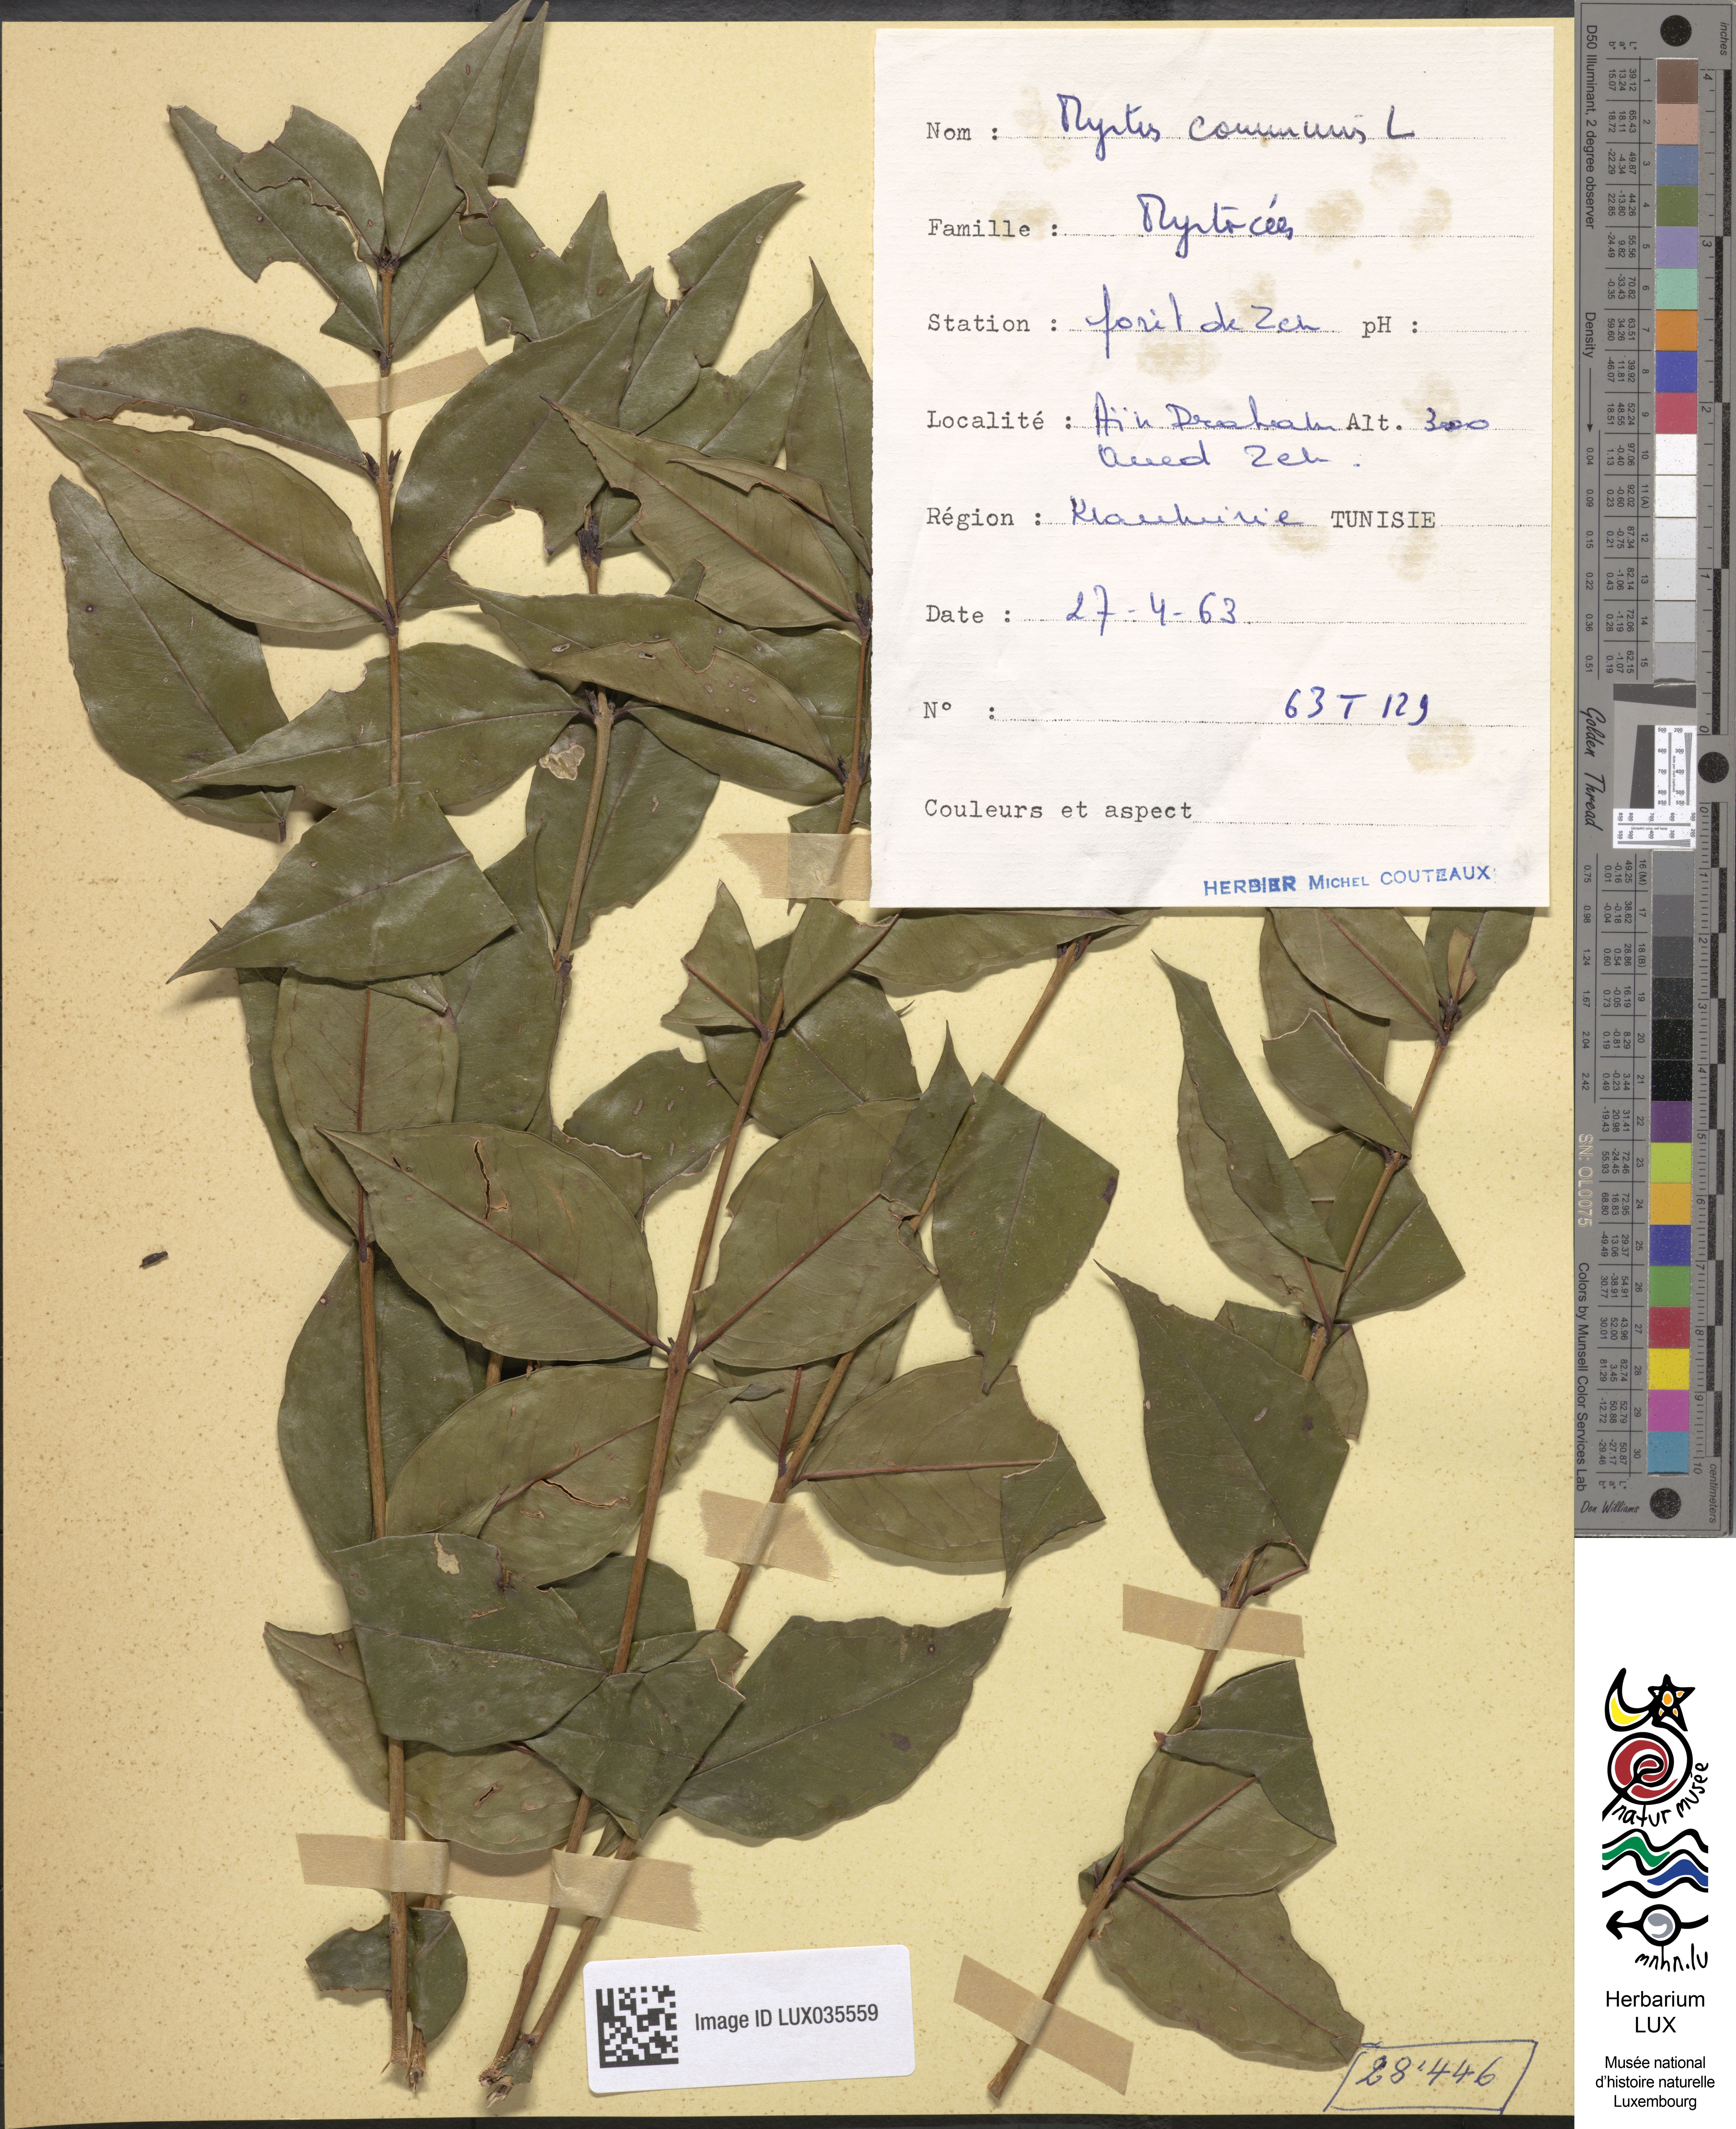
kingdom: Plantae
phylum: Tracheophyta
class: Magnoliopsida
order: Myrtales
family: Myrtaceae
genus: Myrtus
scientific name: Myrtus communis
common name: Myrtle
